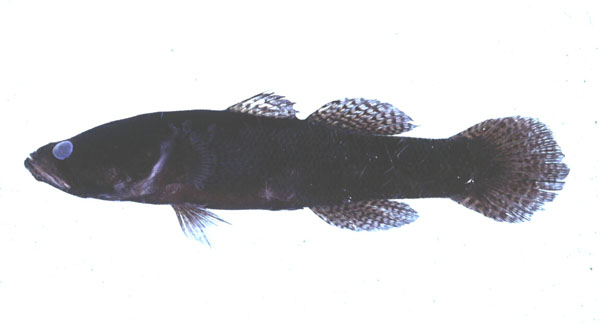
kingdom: Animalia
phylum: Chordata
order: Perciformes
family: Eleotridae
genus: Eleotris
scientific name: Eleotris melanosoma
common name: Broadhead sleeper
